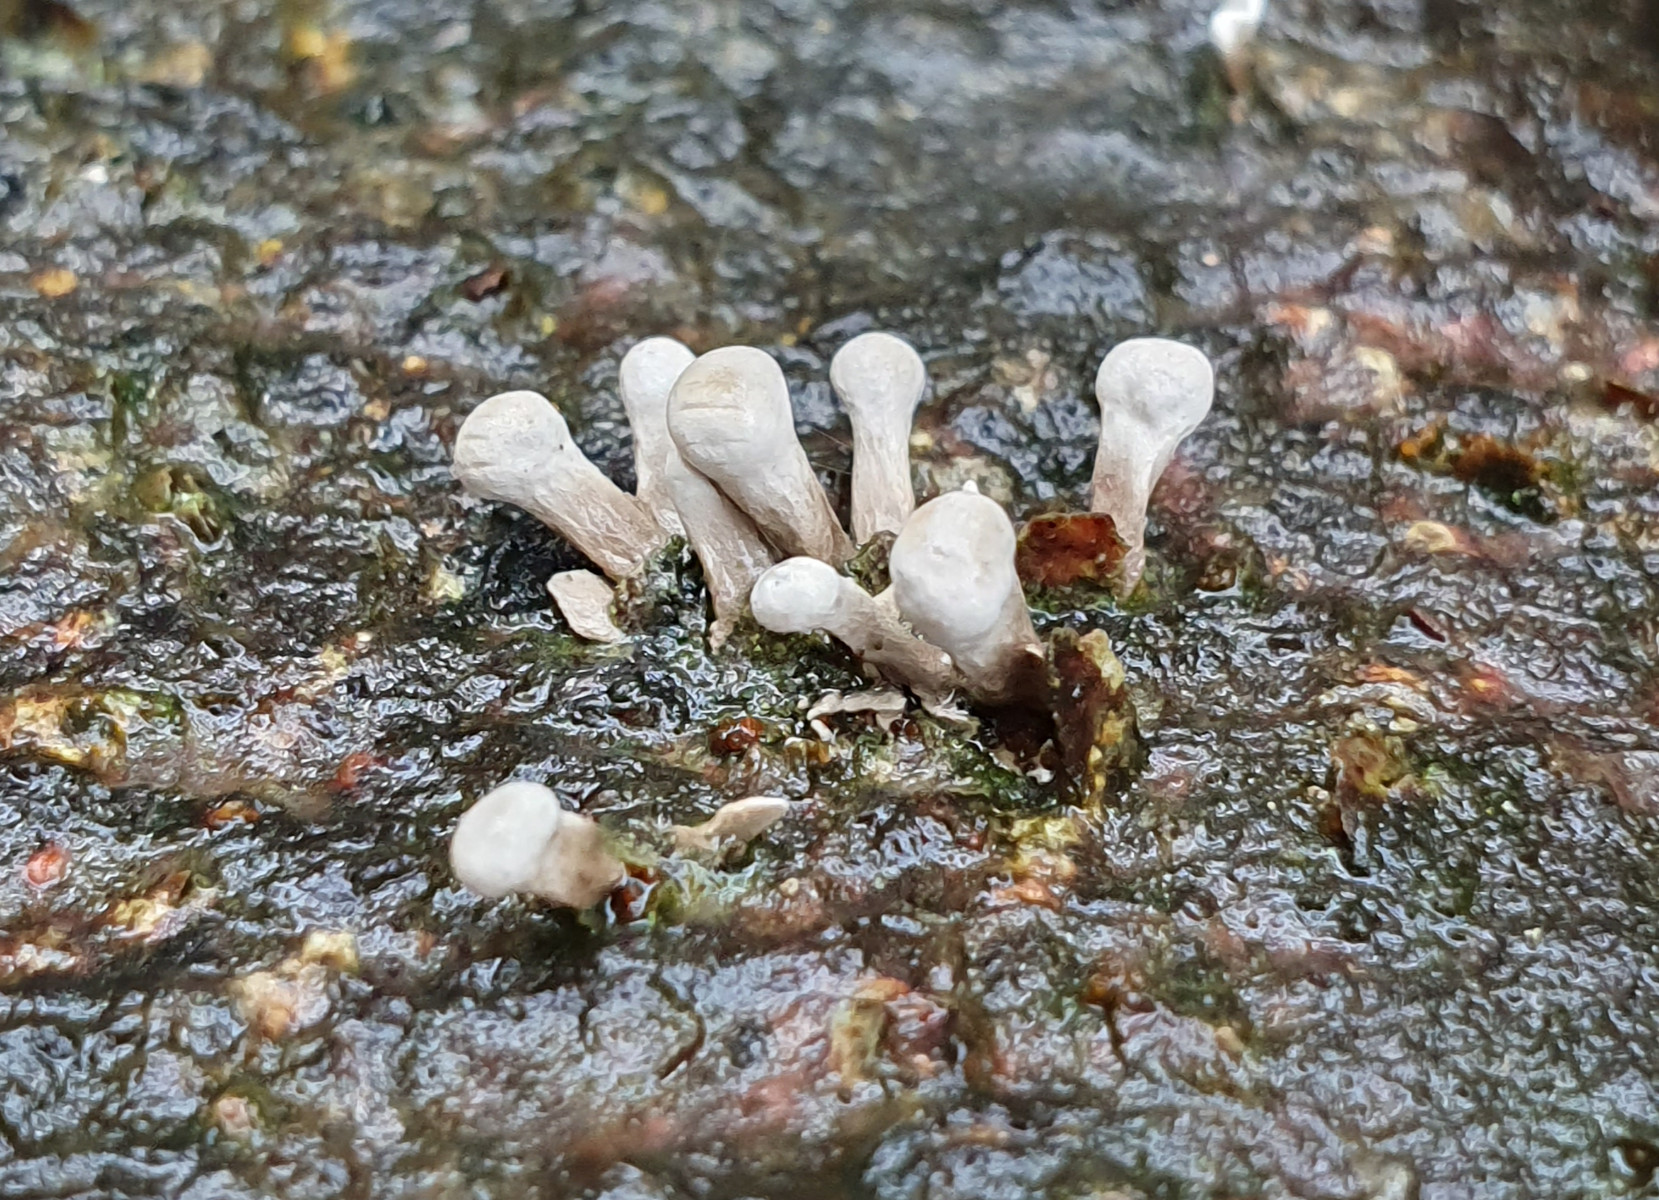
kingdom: Fungi
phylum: Basidiomycota
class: Atractiellomycetes
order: Atractiellales
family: Phleogenaceae
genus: Phleogena
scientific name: Phleogena faginea
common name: pudderkølle
